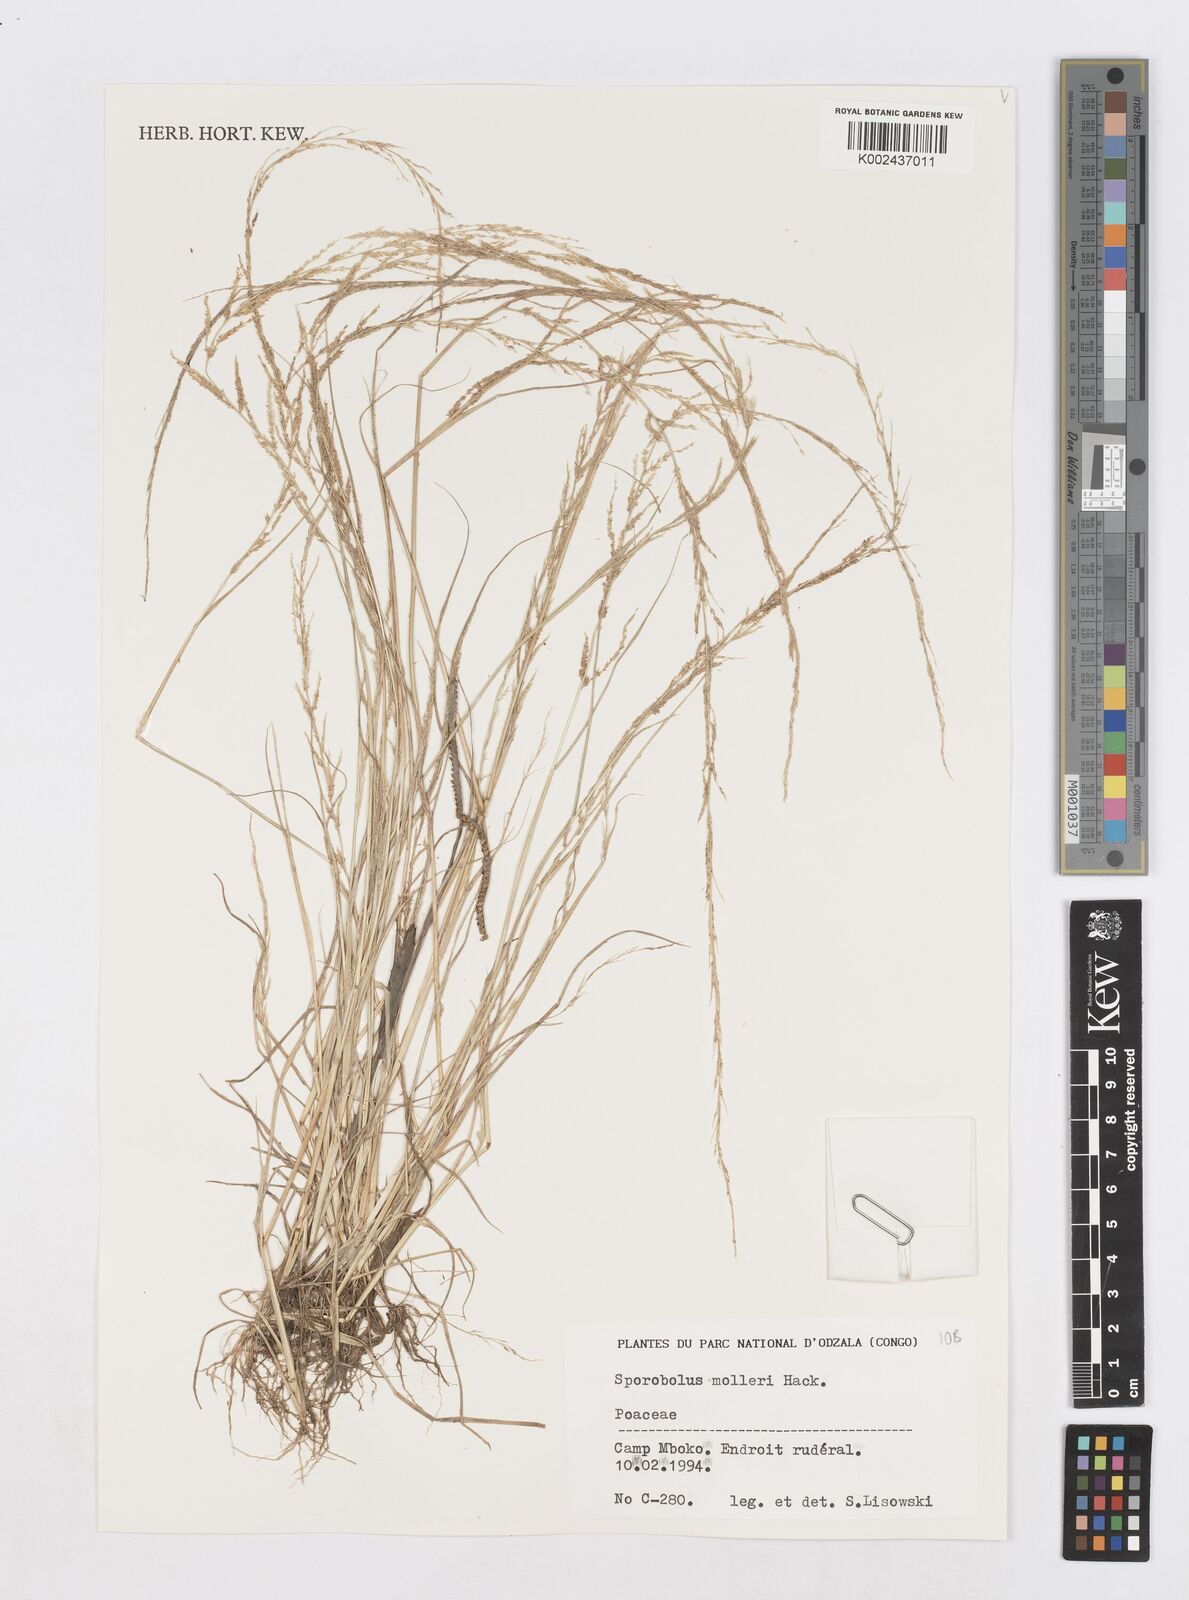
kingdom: Plantae
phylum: Tracheophyta
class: Liliopsida
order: Poales
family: Poaceae
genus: Sporobolus
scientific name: Sporobolus molleri
